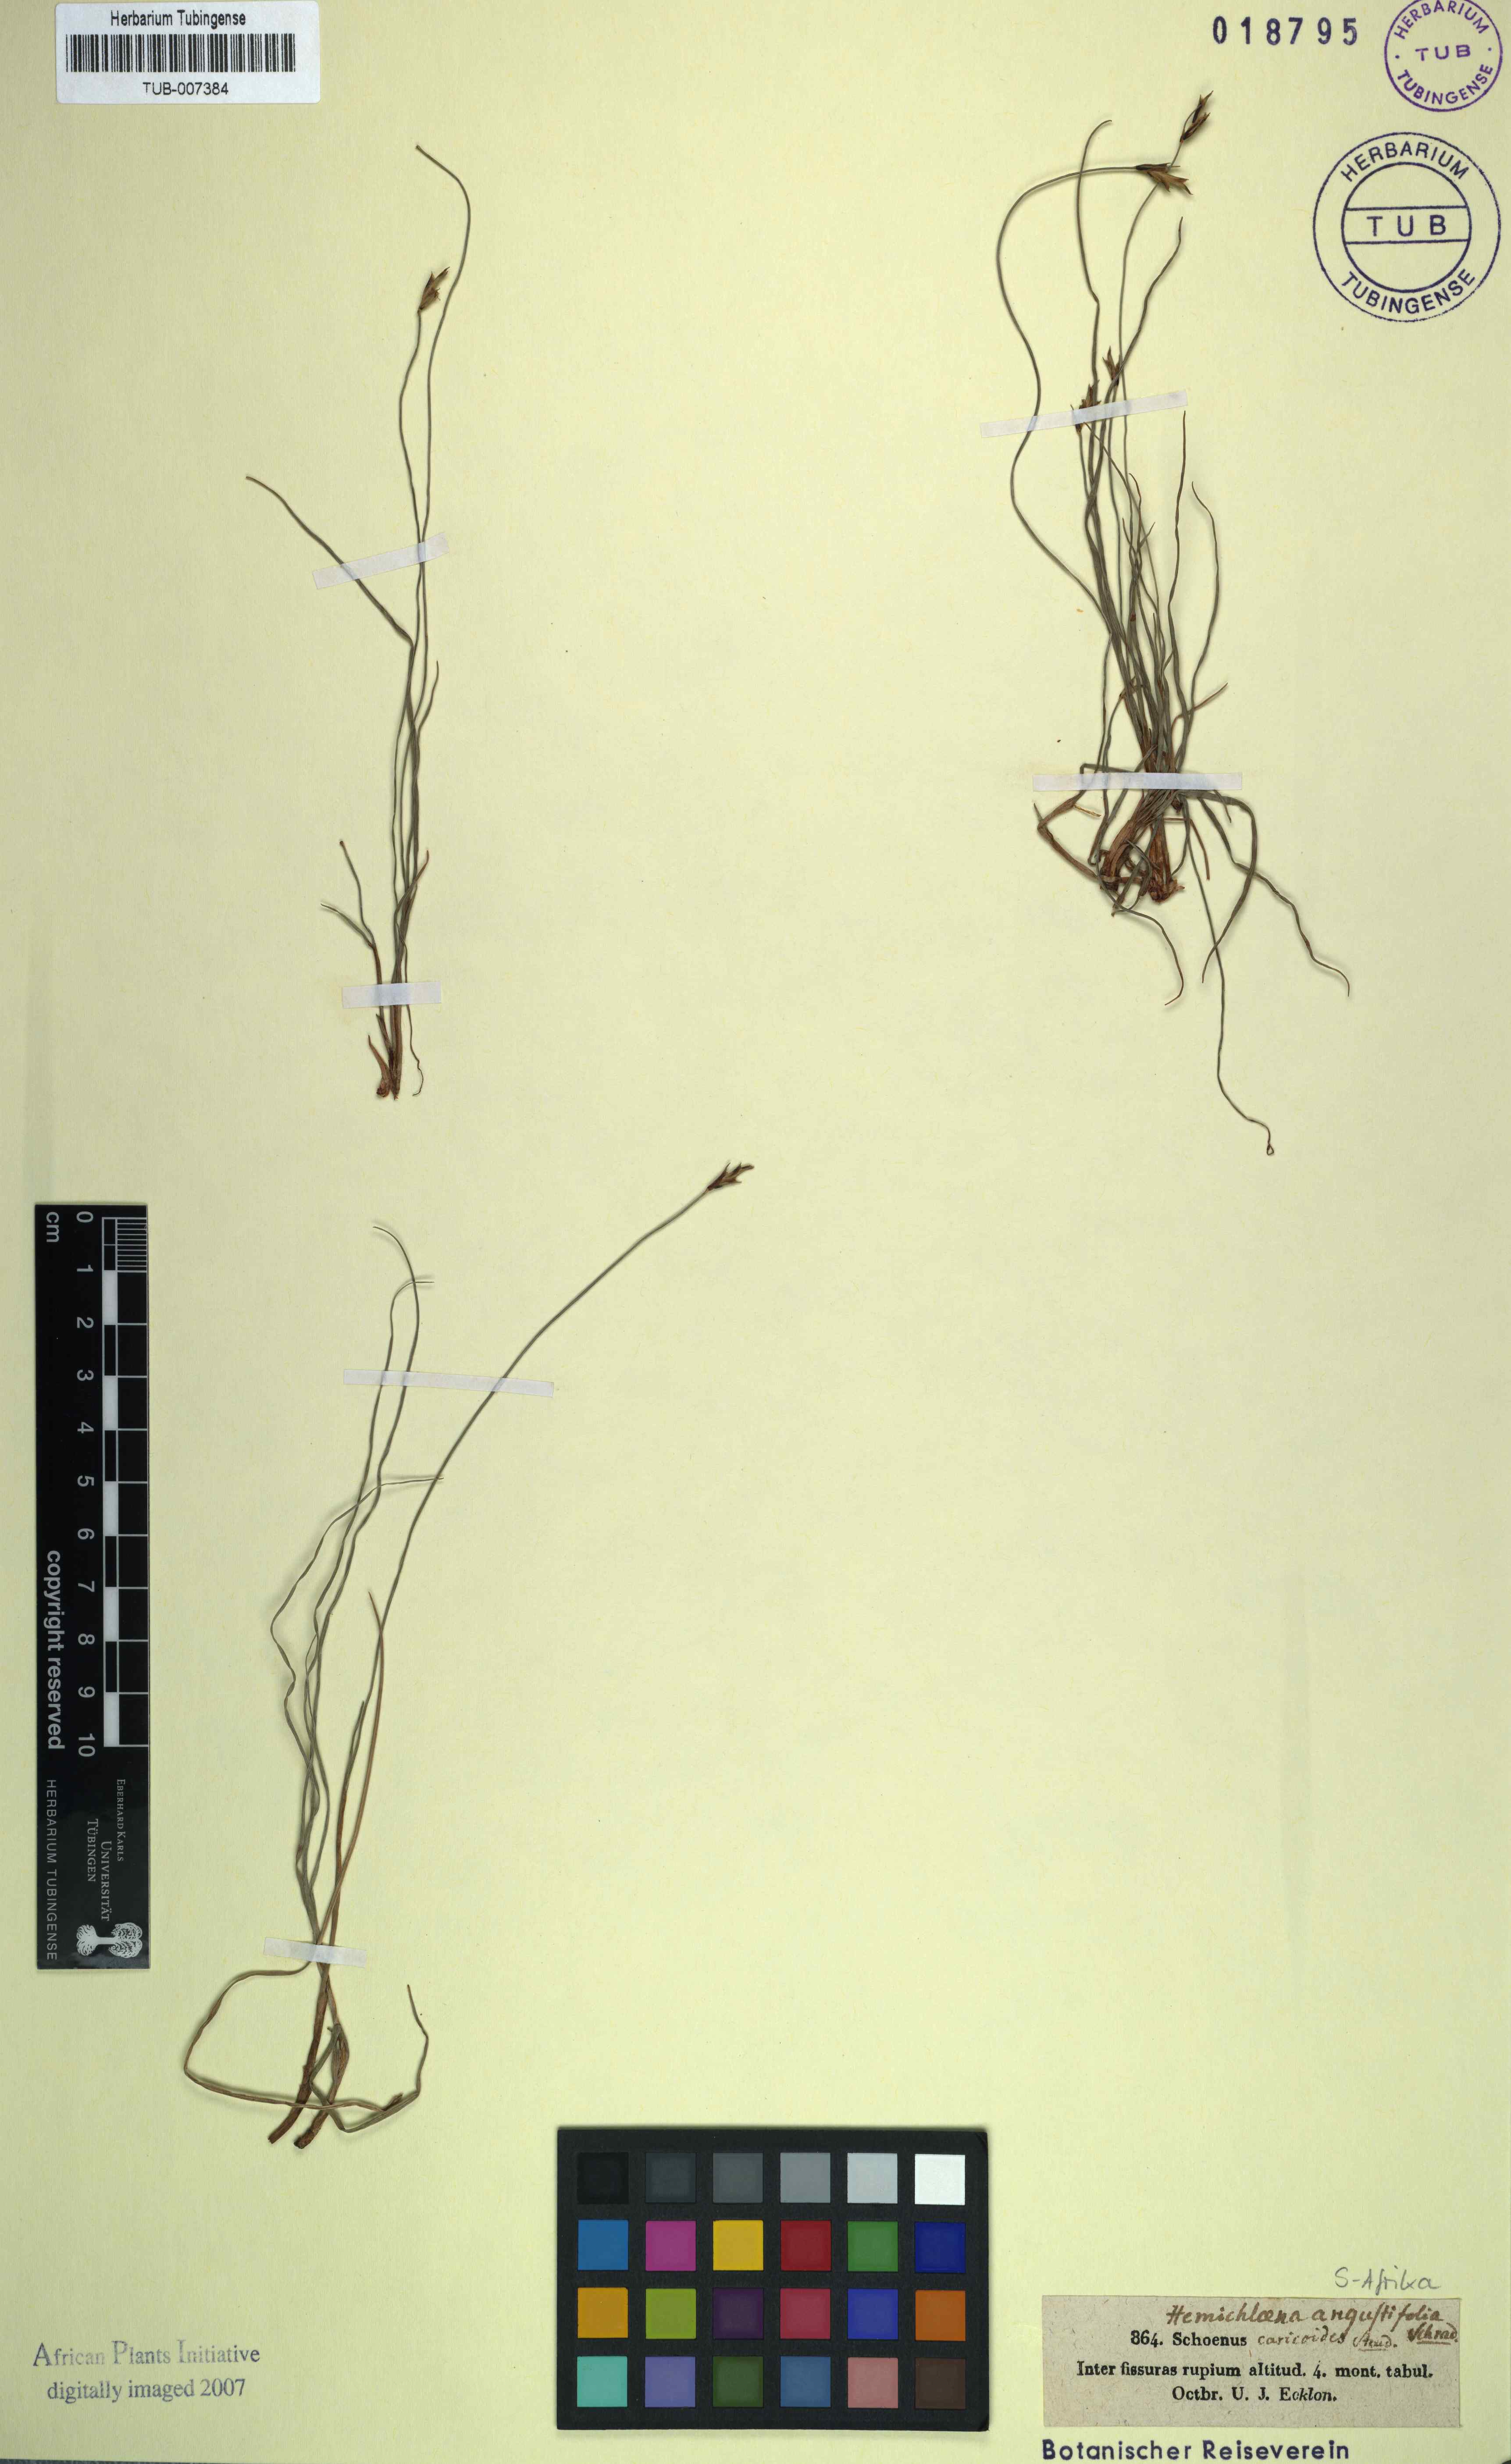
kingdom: Plantae
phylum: Tracheophyta
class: Liliopsida
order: Poales
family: Cyperaceae
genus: Ficinia
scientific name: Ficinia angustifolia
